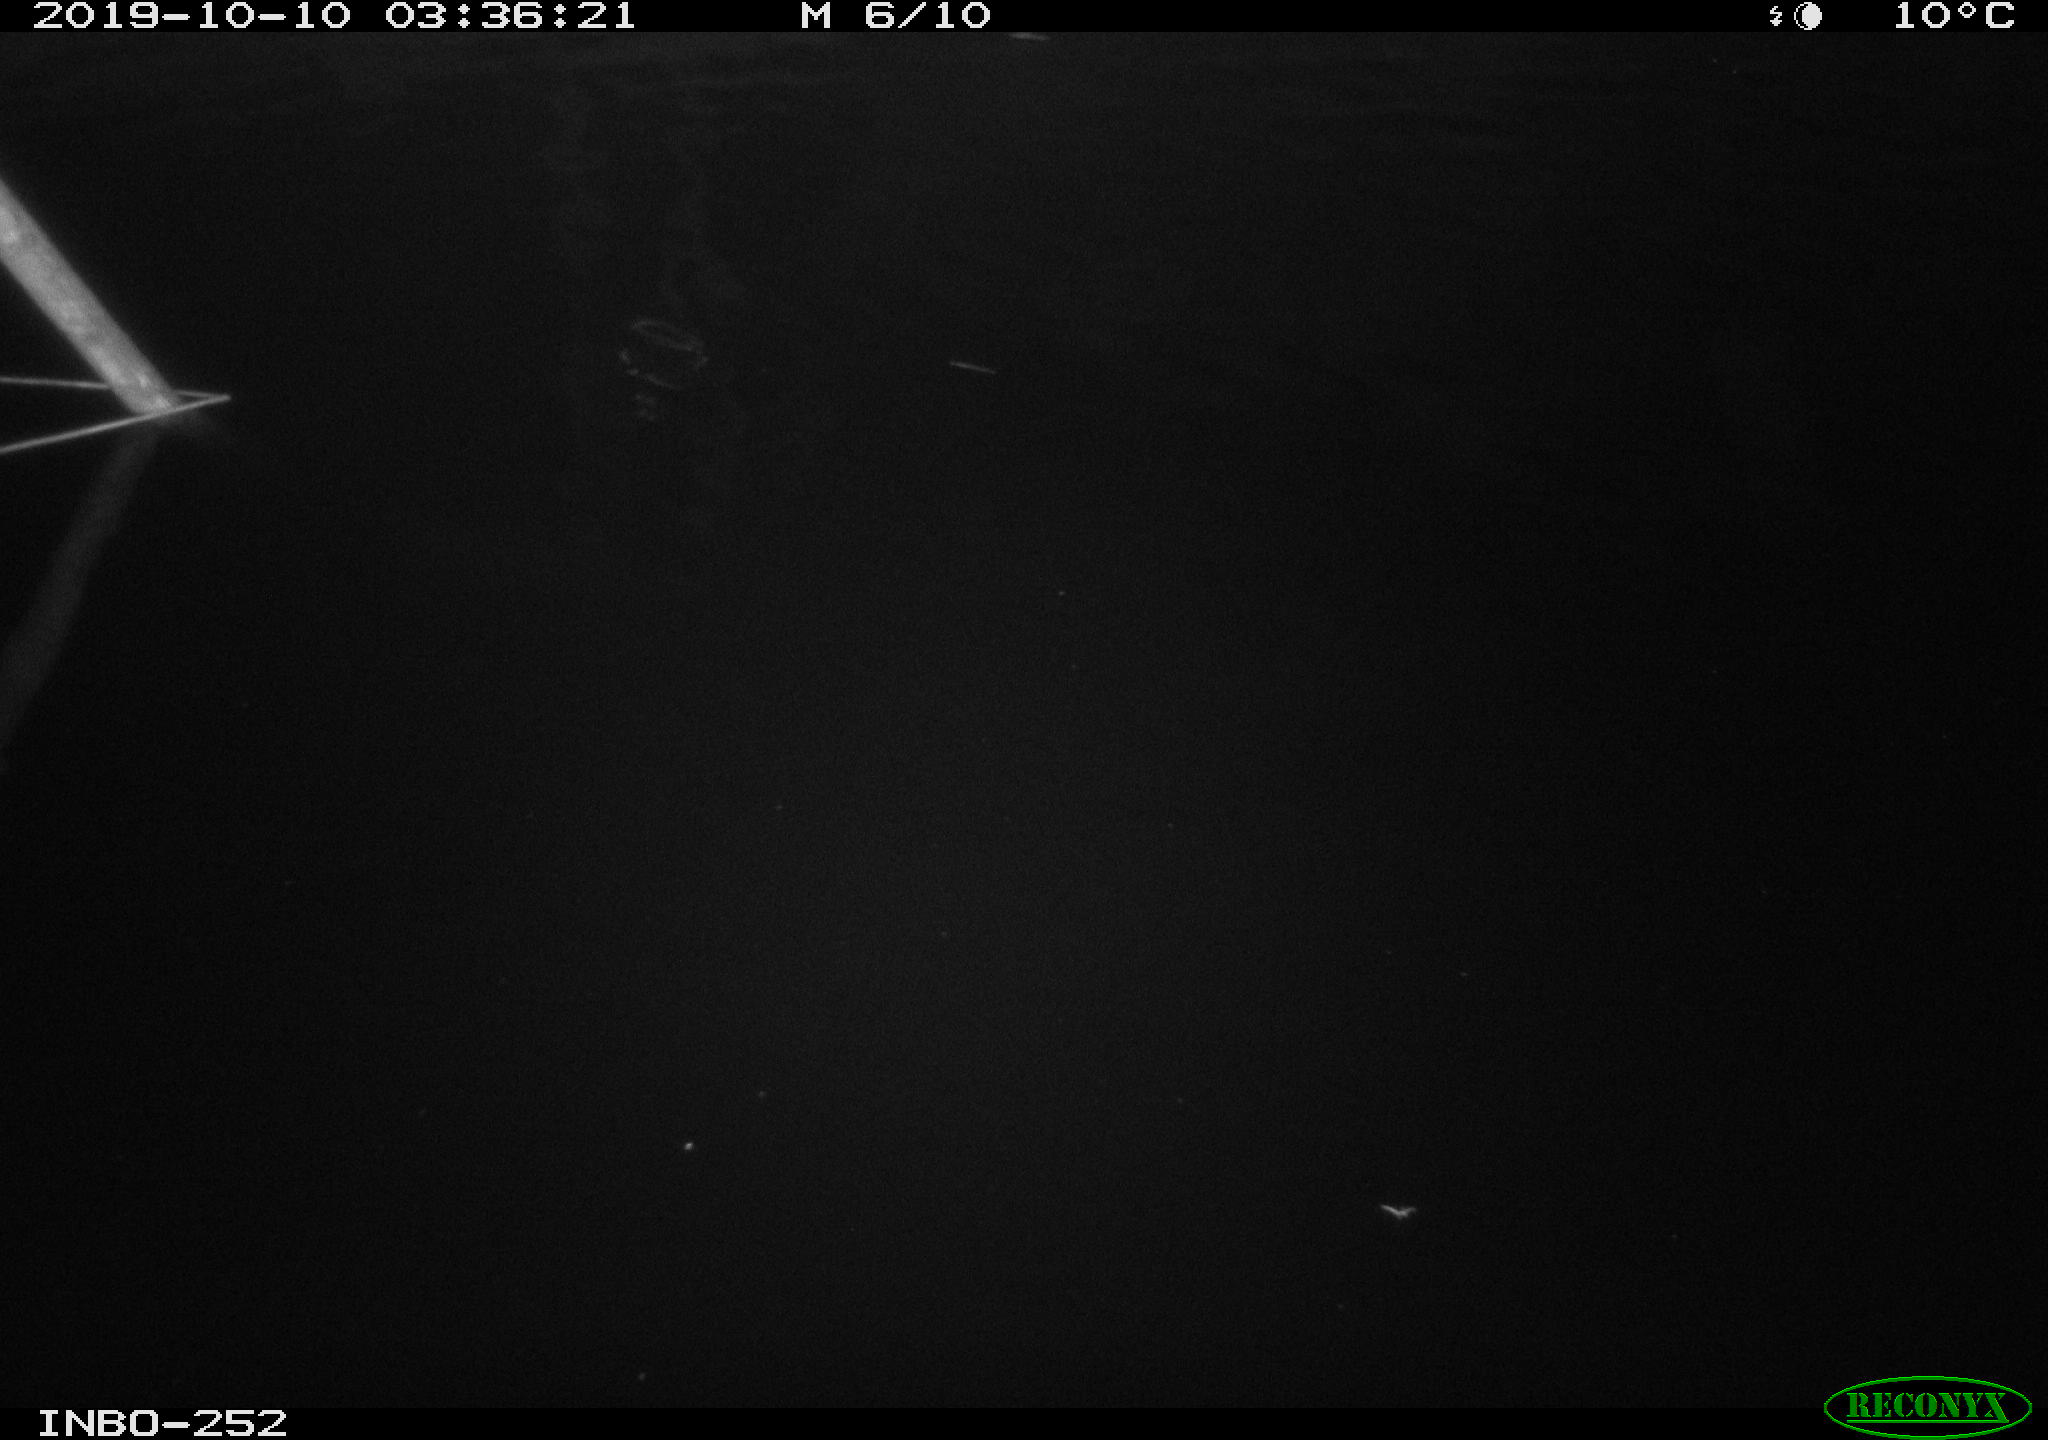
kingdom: Animalia
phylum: Chordata
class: Aves
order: Anseriformes
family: Anatidae
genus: Anas
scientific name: Anas platyrhynchos
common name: Mallard
